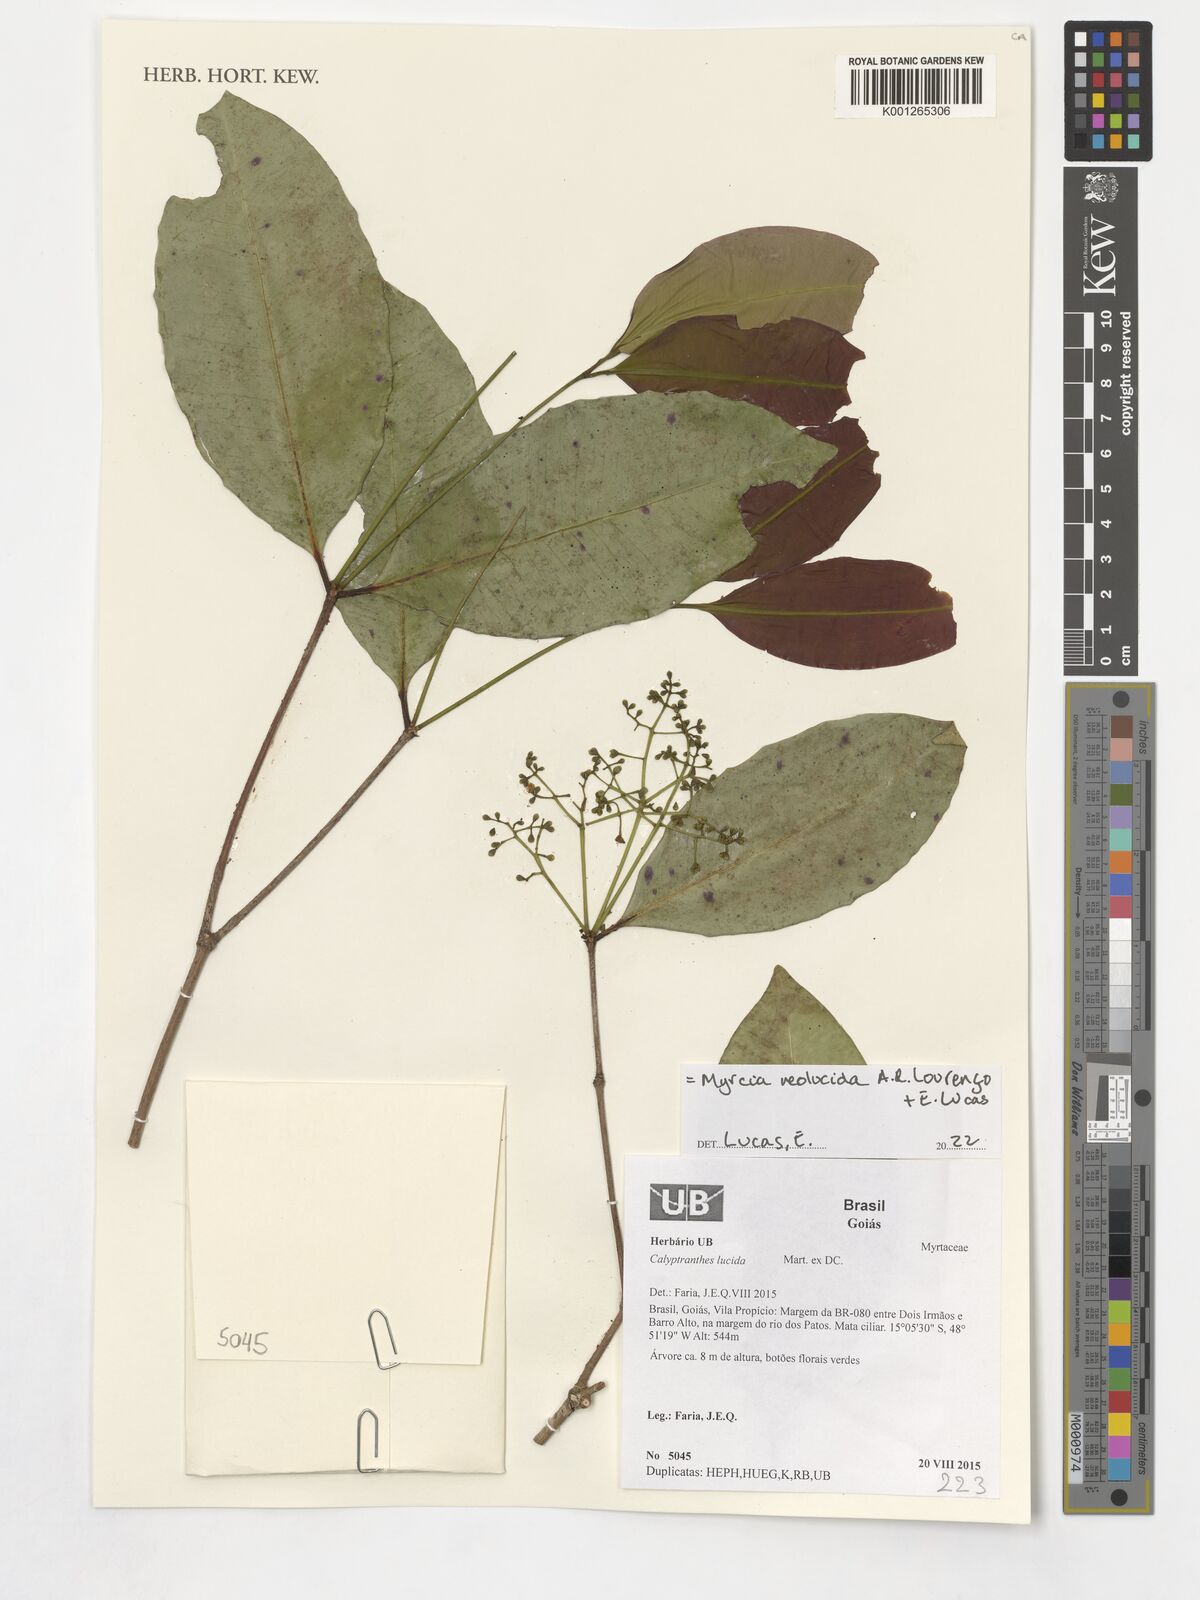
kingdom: Plantae
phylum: Tracheophyta
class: Magnoliopsida
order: Myrtales
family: Myrtaceae
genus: Myrcia
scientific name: Myrcia neolucida
